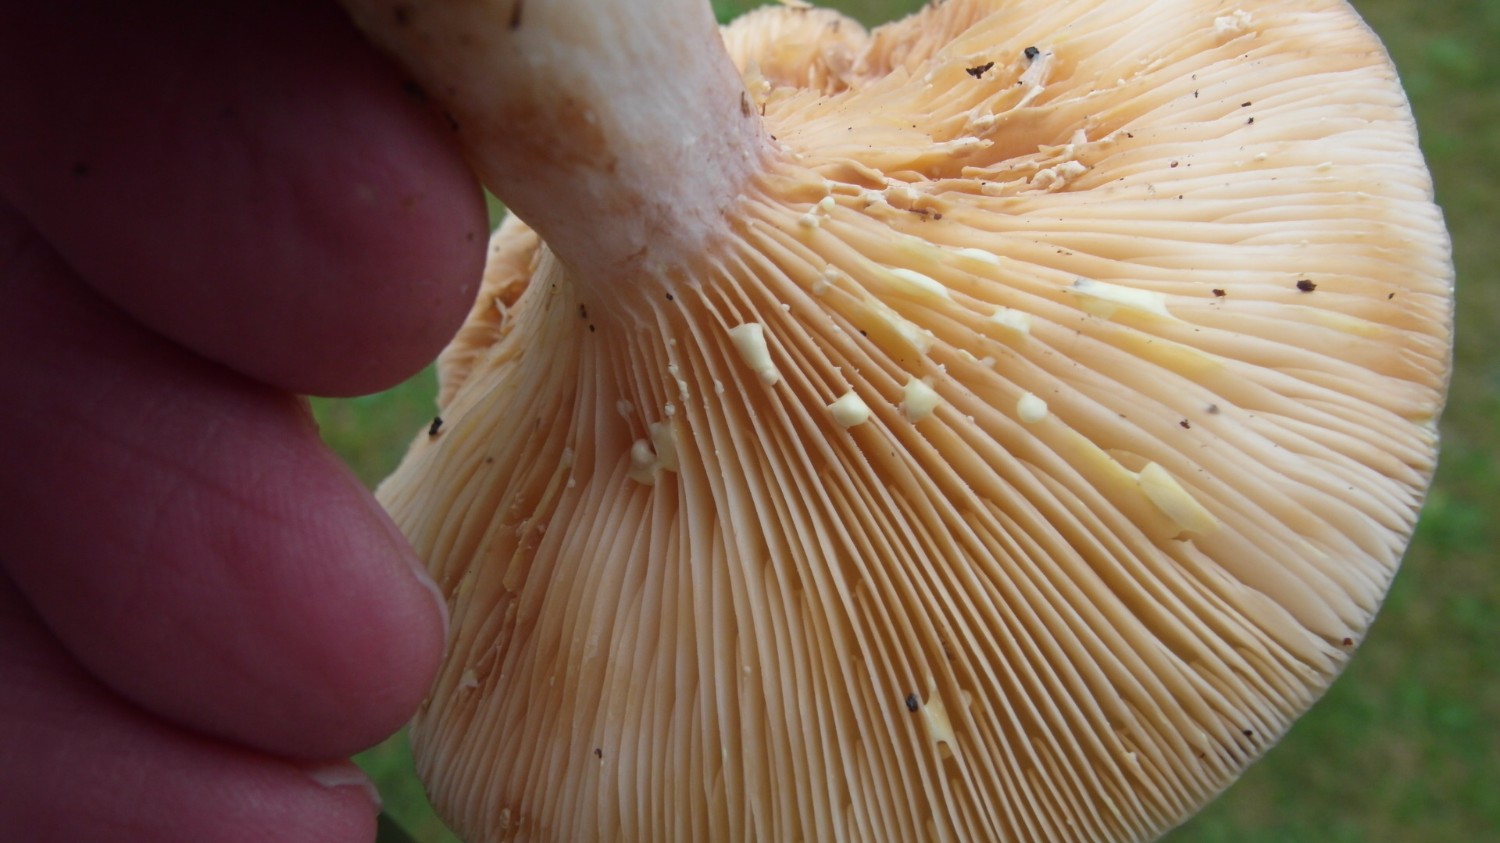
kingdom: Fungi
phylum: Basidiomycota
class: Agaricomycetes
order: Russulales
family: Russulaceae
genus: Lactarius
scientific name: Lactarius chrysorrheus
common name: svovlmælket mælkehat
